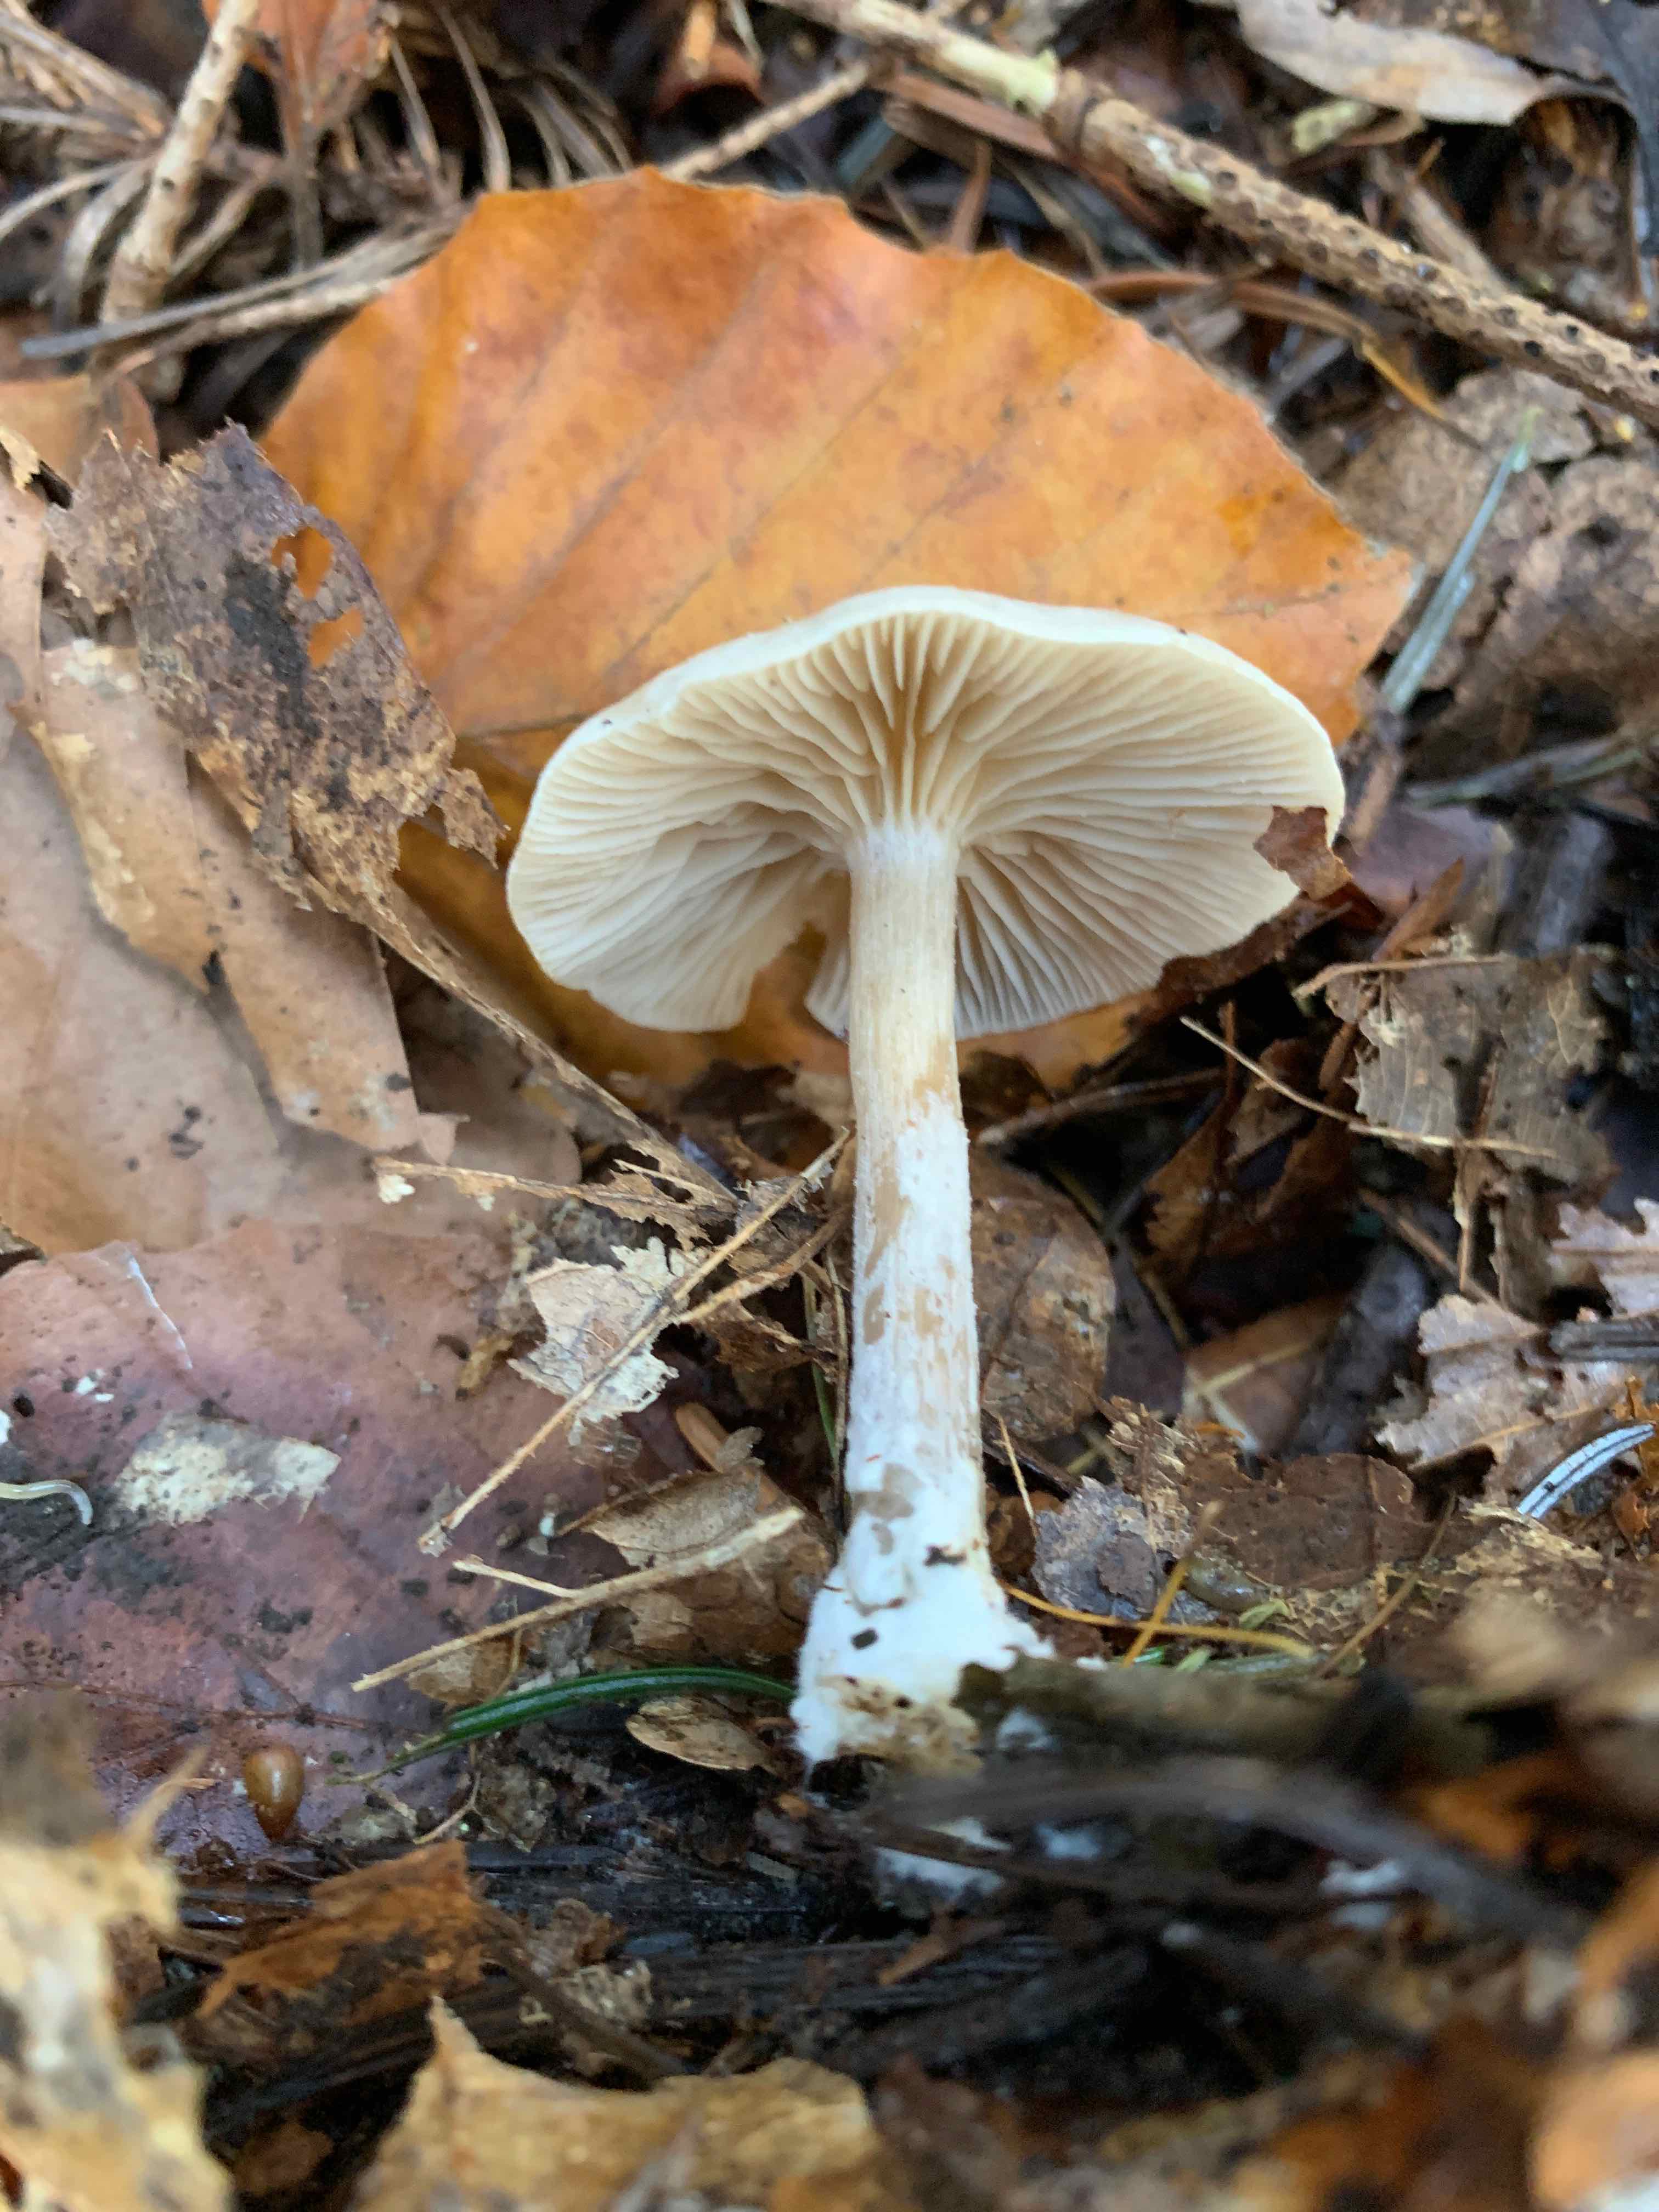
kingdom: Fungi
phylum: Basidiomycota
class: Agaricomycetes
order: Agaricales
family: Tricholomataceae
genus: Clitocybe
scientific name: Clitocybe
